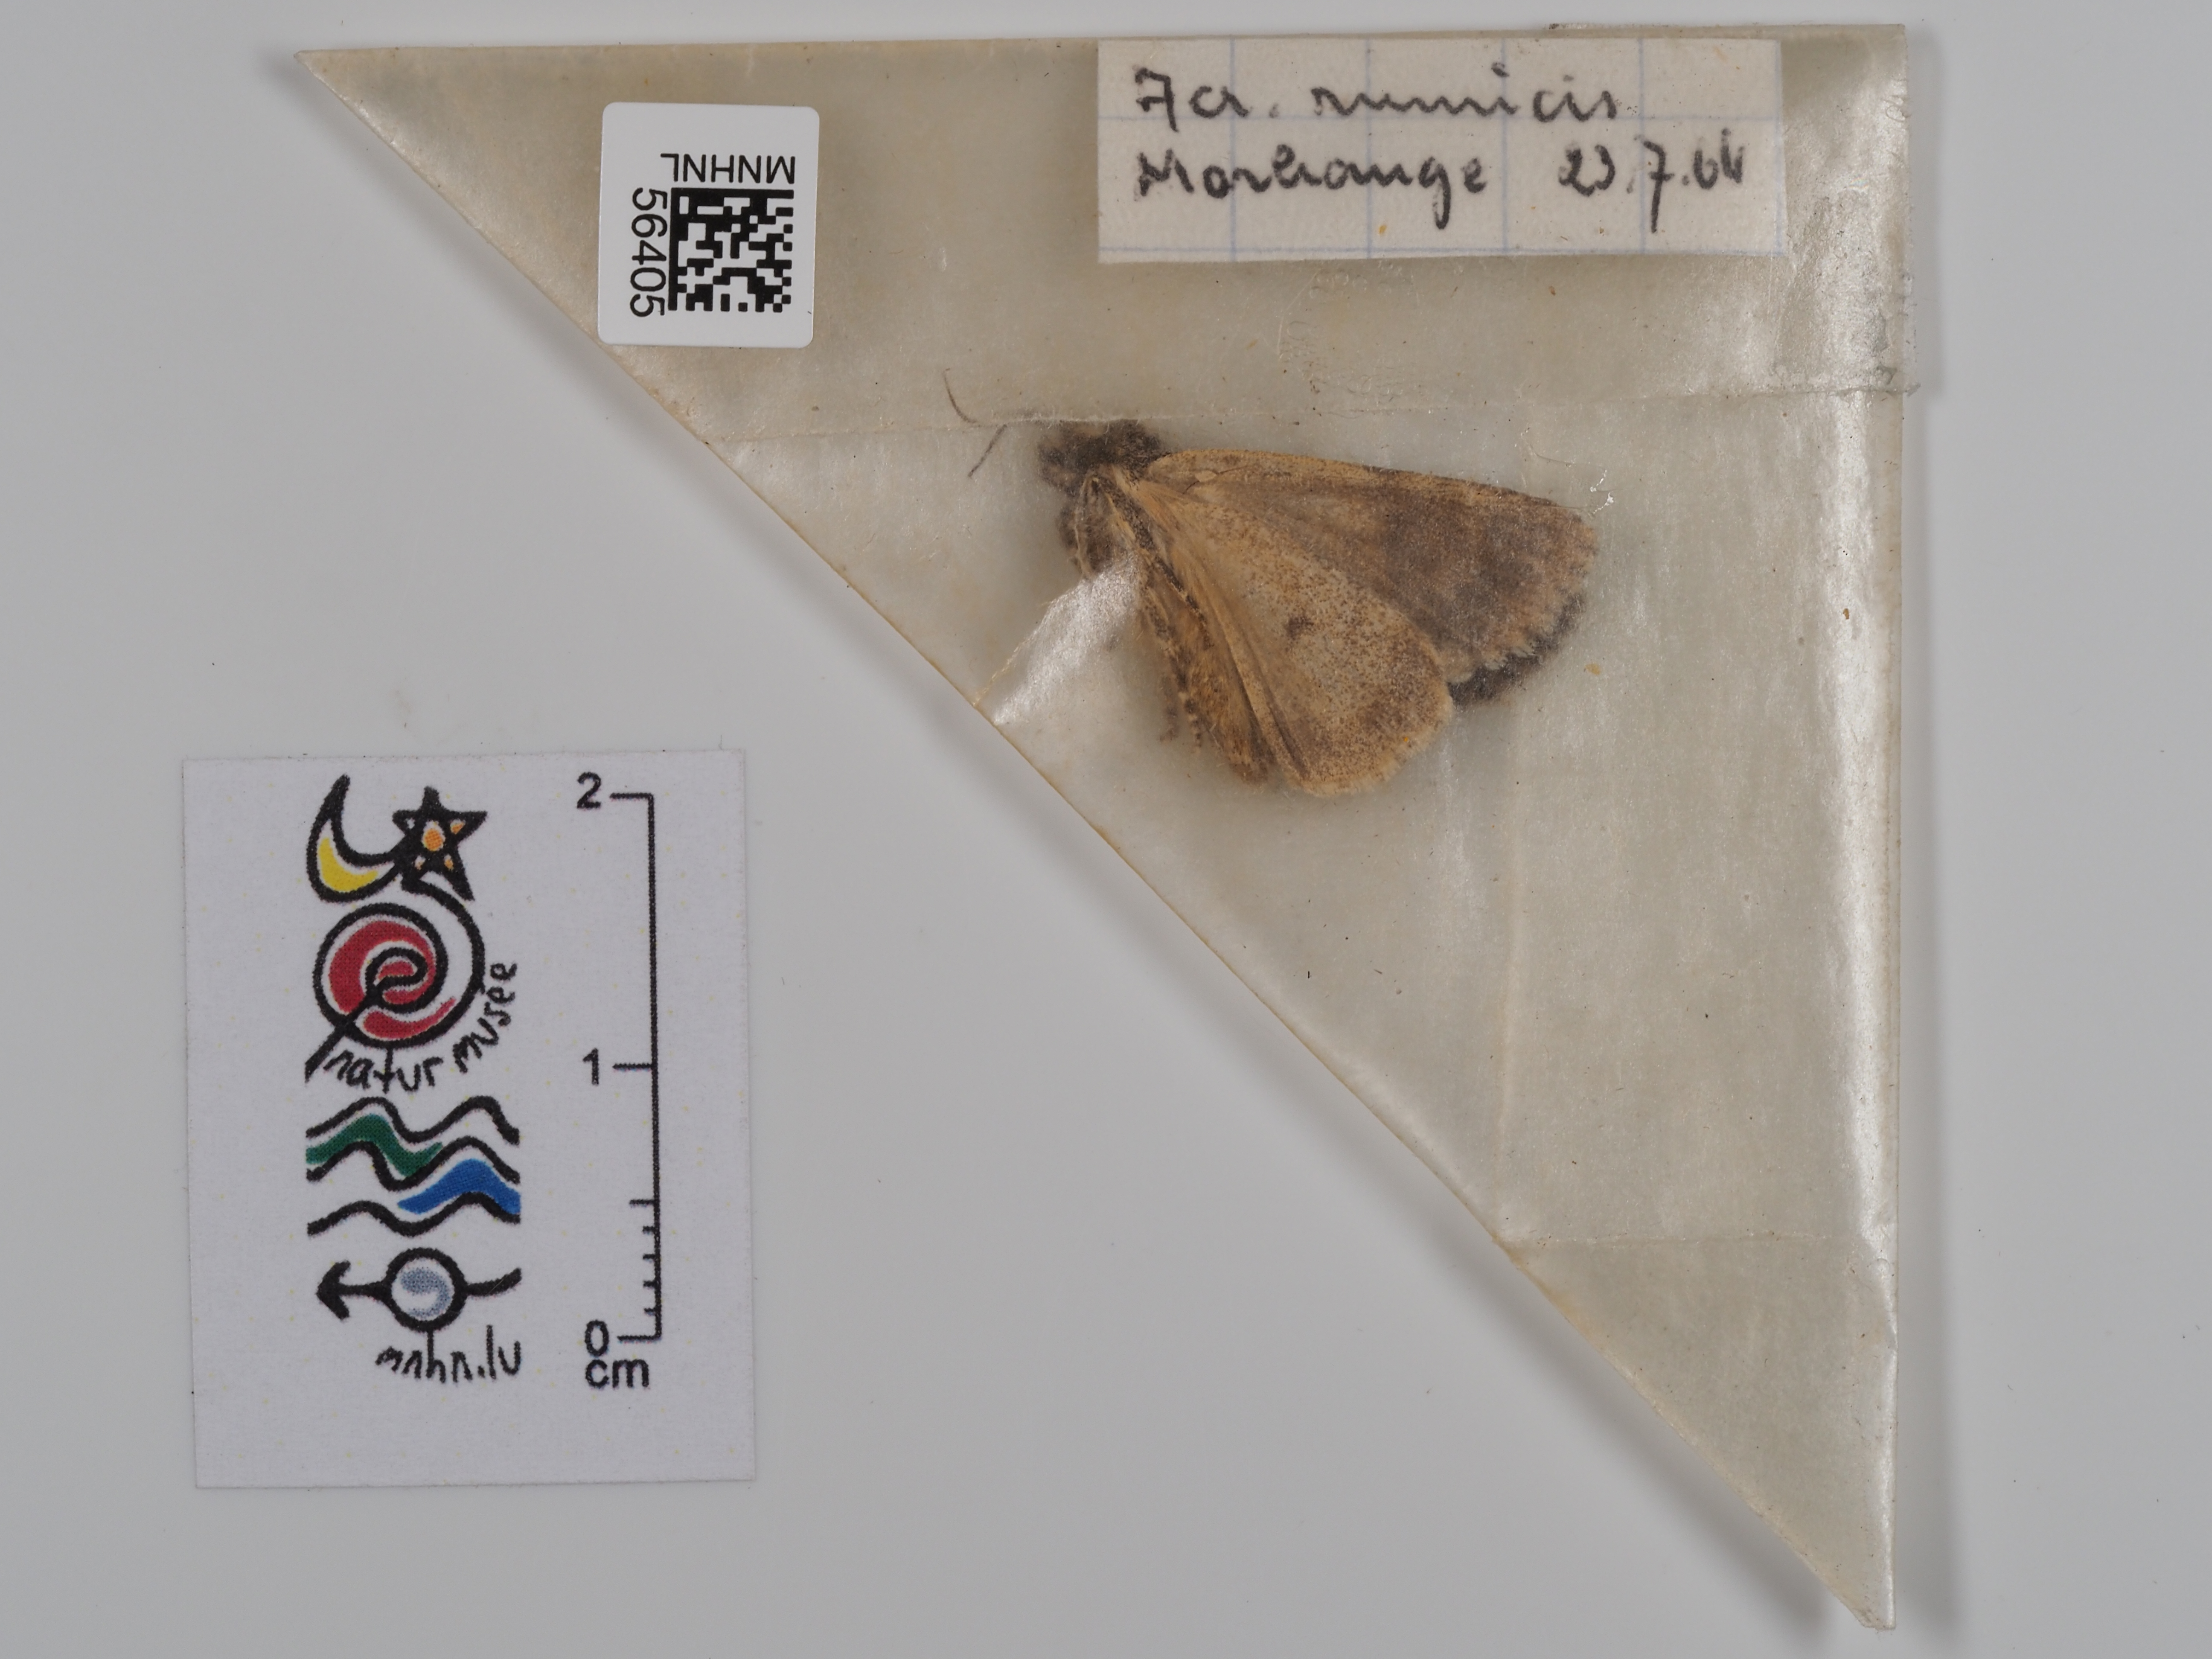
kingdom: Animalia
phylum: Arthropoda
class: Insecta
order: Lepidoptera
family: Noctuidae
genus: Acronicta
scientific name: Acronicta rumicis
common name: Knot grass
